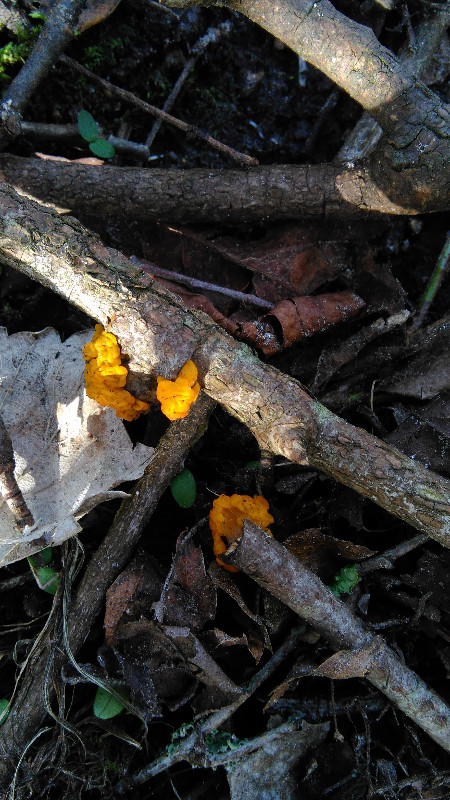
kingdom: Fungi
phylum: Basidiomycota
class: Tremellomycetes
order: Tremellales
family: Tremellaceae
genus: Tremella
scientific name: Tremella mesenterica
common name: gul bævresvamp
